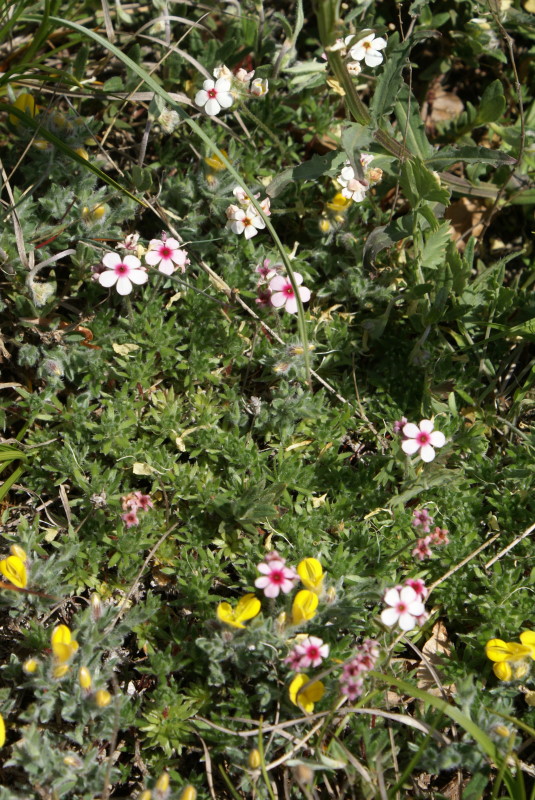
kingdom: Plantae
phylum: Tracheophyta
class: Magnoliopsida
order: Ericales
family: Primulaceae
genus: Androsace
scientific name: Androsace villosa
